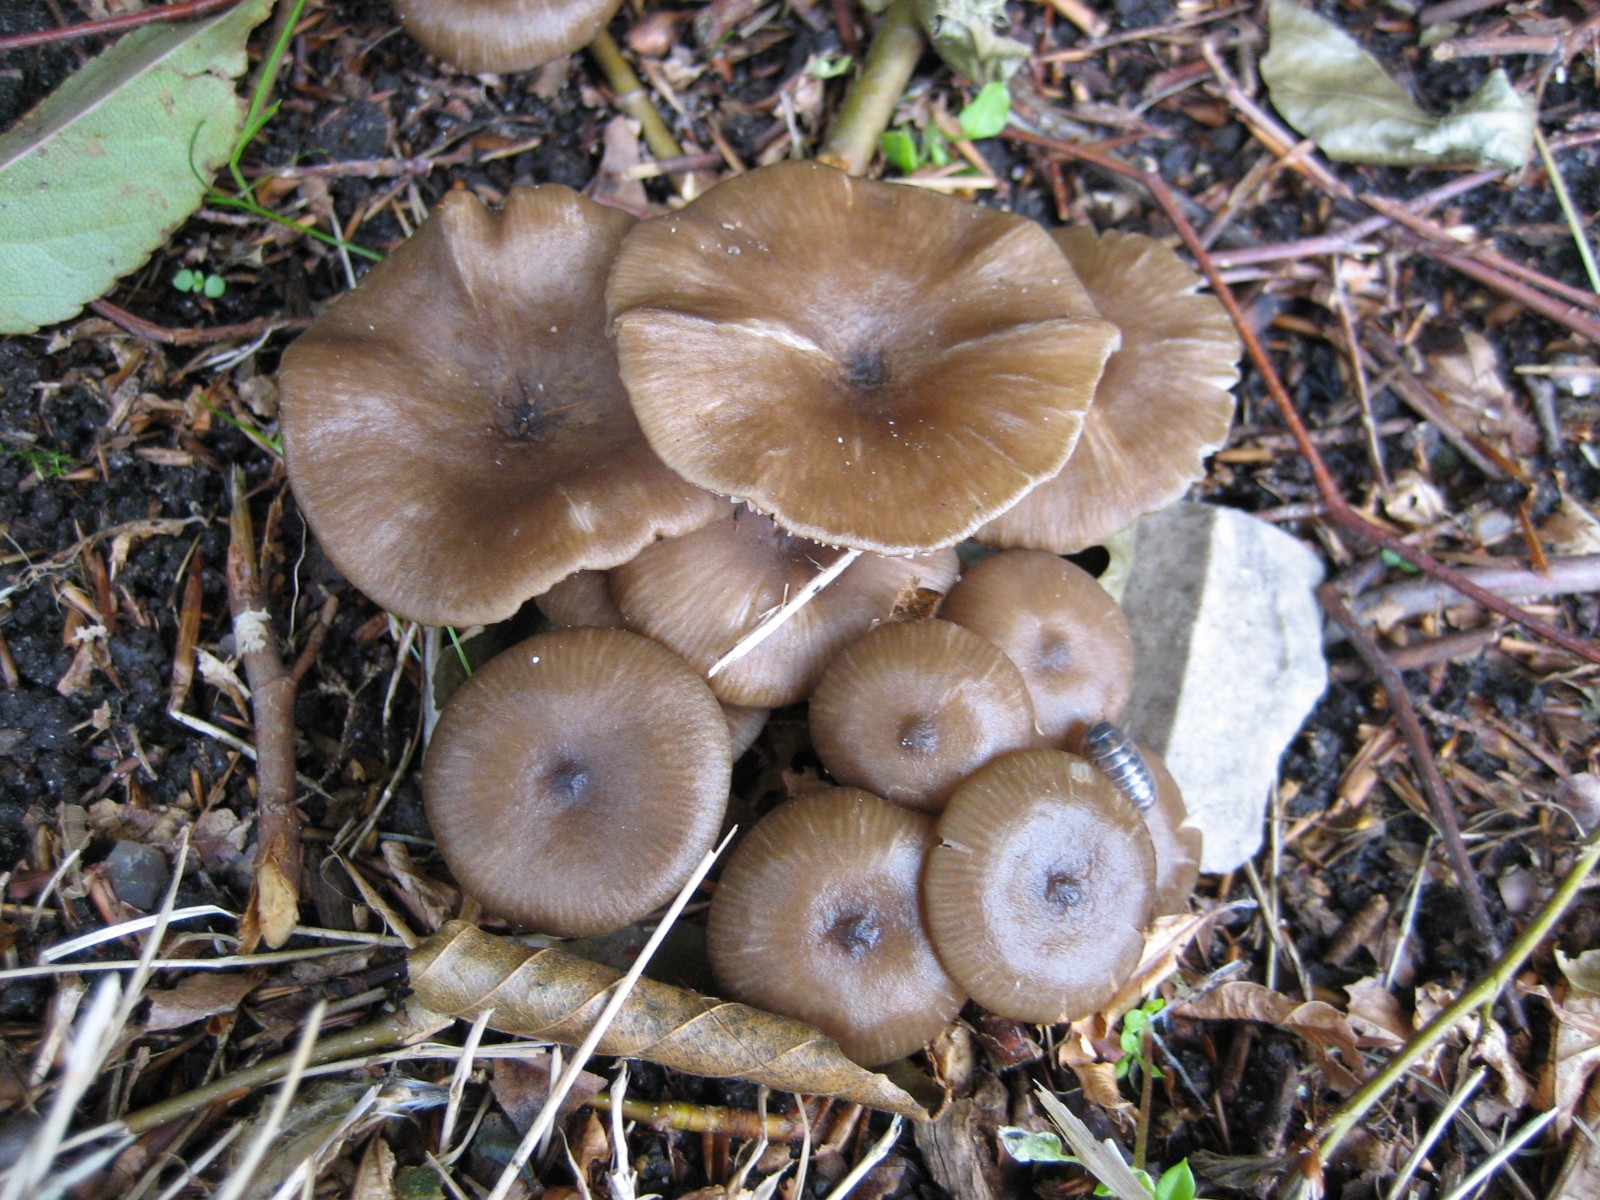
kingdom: Fungi
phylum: Basidiomycota
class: Agaricomycetes
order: Agaricales
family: Entolomataceae
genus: Entoloma
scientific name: Entoloma
